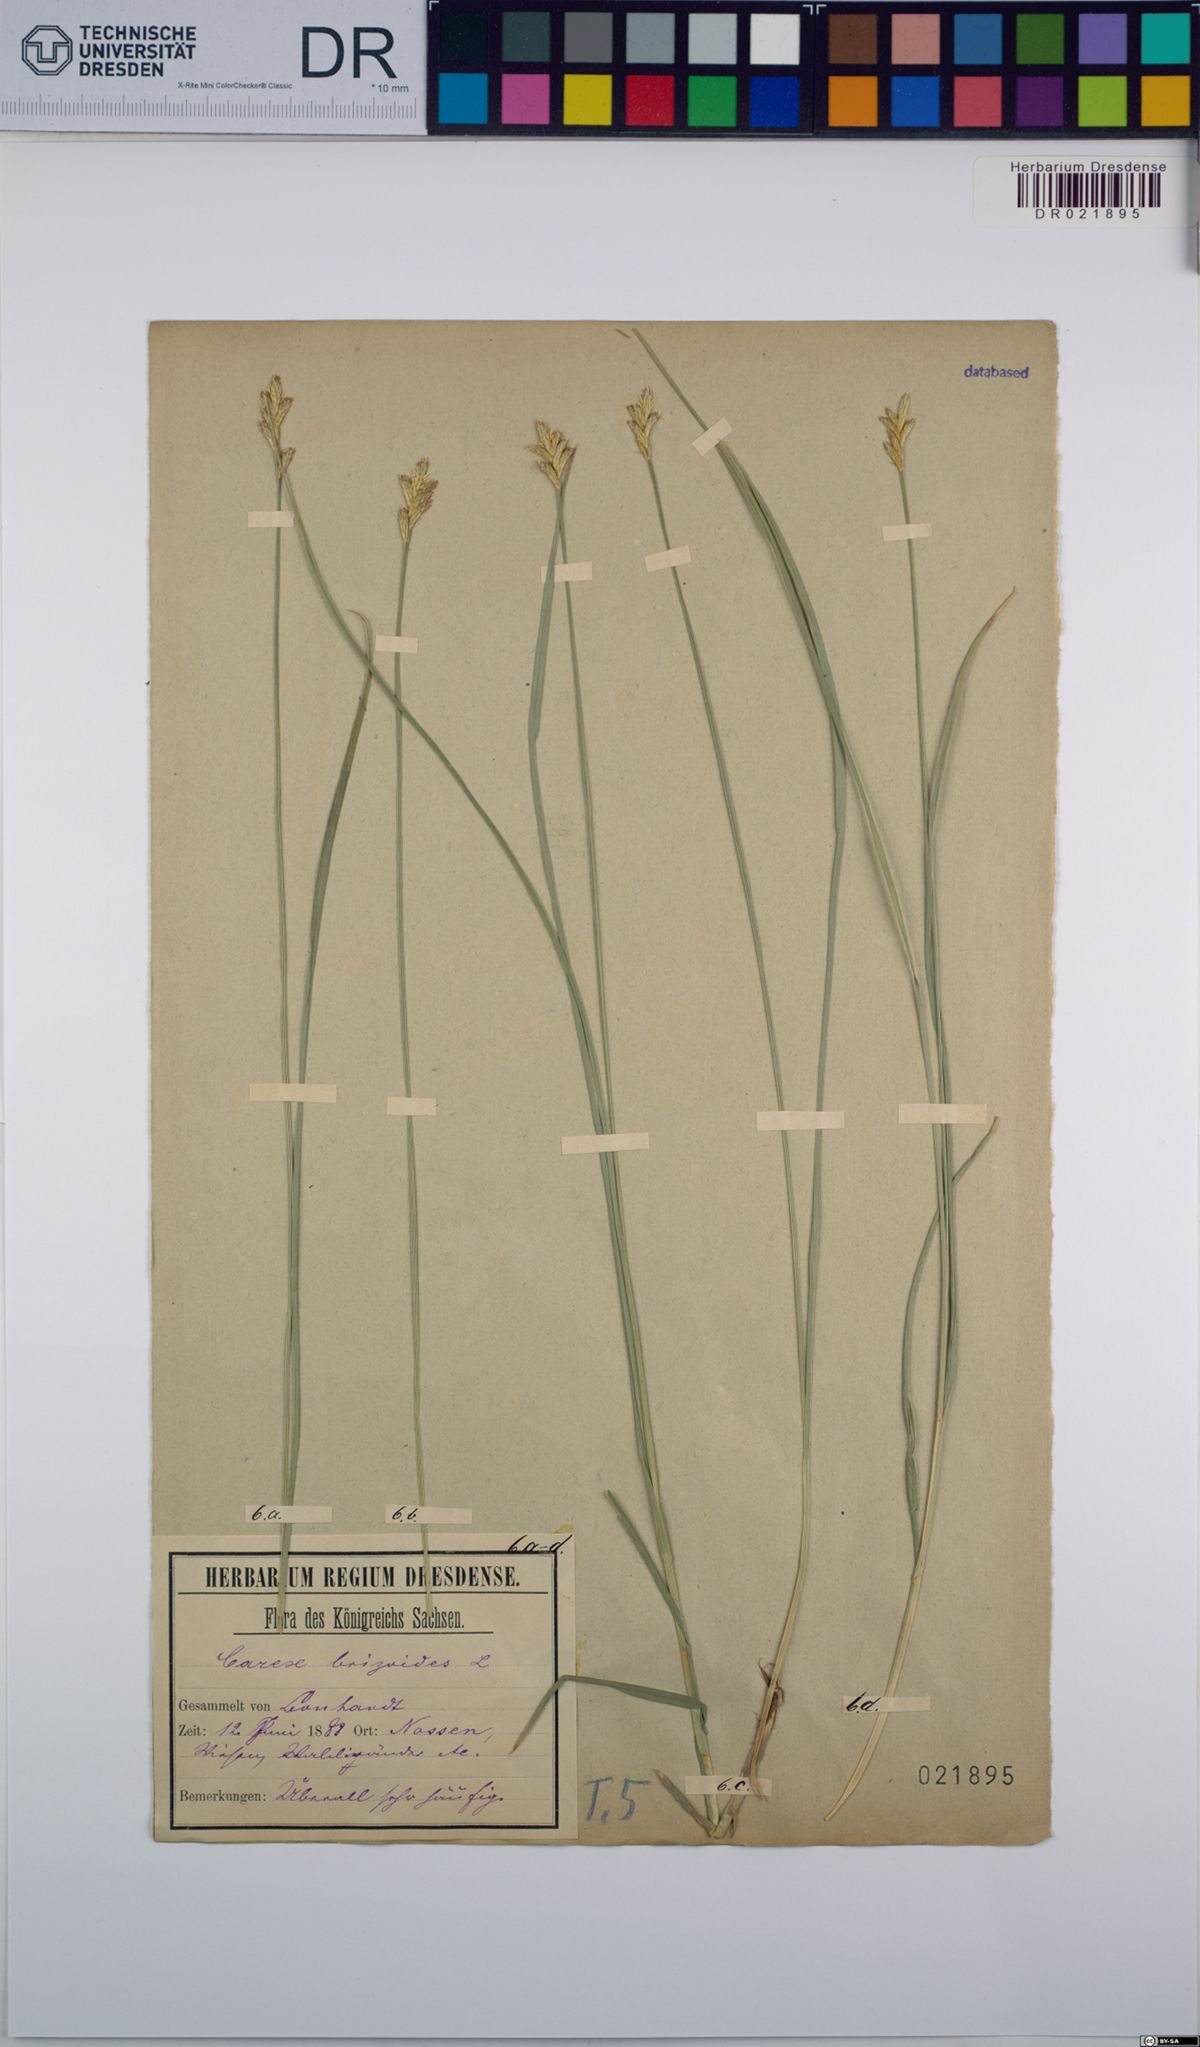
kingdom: Plantae
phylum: Tracheophyta
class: Liliopsida
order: Poales
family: Cyperaceae
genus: Carex
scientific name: Carex brizoides
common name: Quaking-grass sedge
